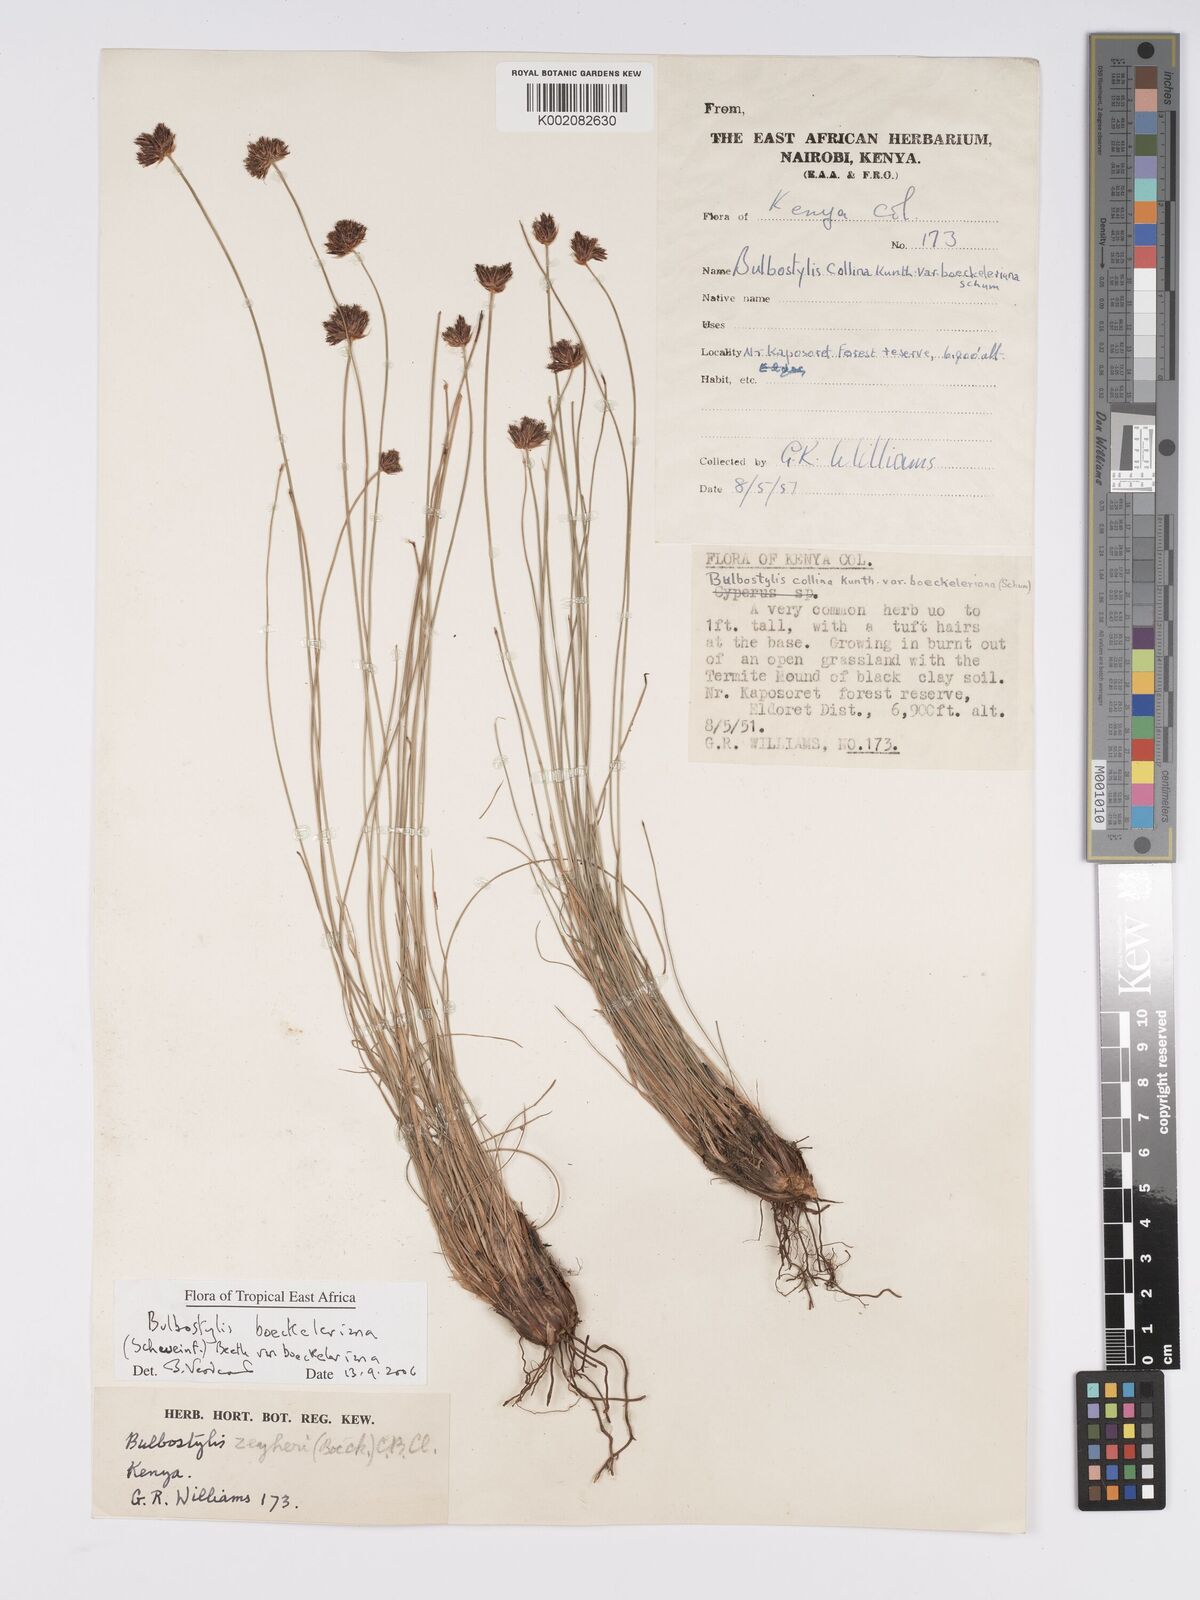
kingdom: Plantae
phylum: Tracheophyta
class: Liliopsida
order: Poales
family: Cyperaceae
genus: Bulbostylis
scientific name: Bulbostylis boeckeleriana
